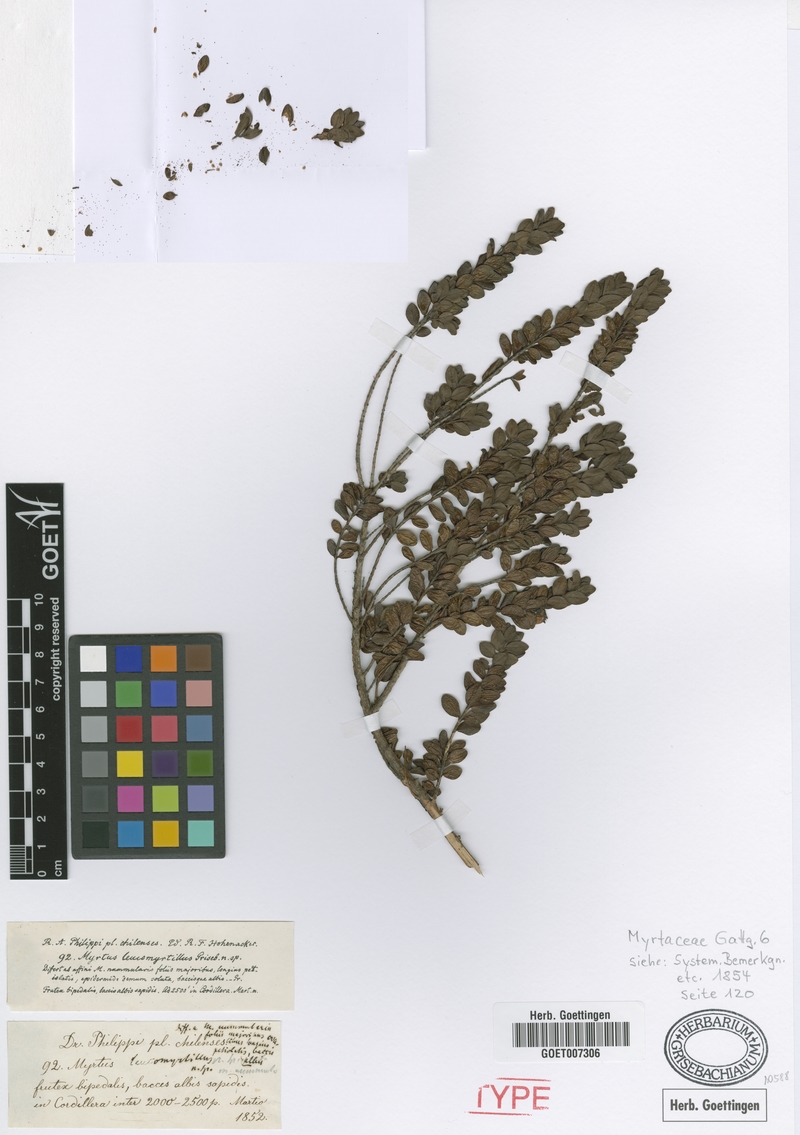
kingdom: Plantae
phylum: Tracheophyta
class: Magnoliopsida
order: Myrtales
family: Myrtaceae
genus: Myrteola
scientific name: Myrteola nummularia
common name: Cranberry-myrtle
